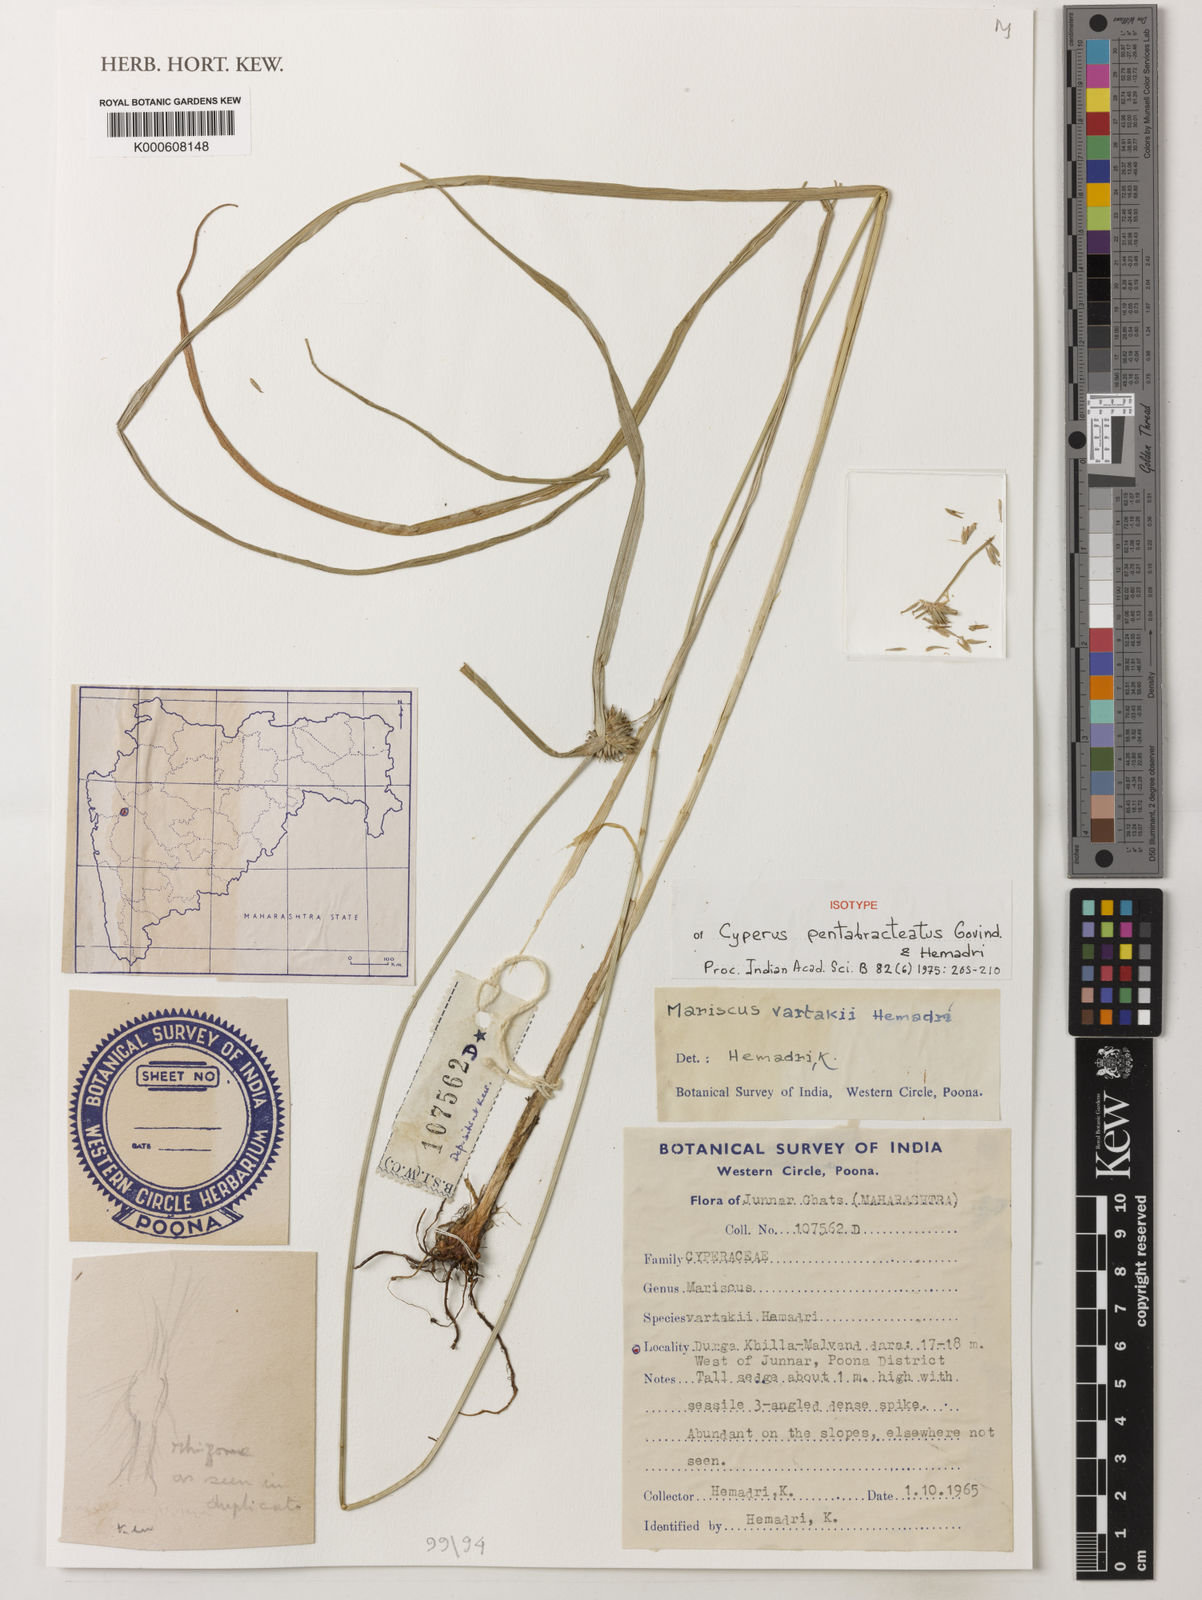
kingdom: Plantae
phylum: Tracheophyta
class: Liliopsida
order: Poales
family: Cyperaceae
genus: Cyperus
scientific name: Cyperus blatteri
